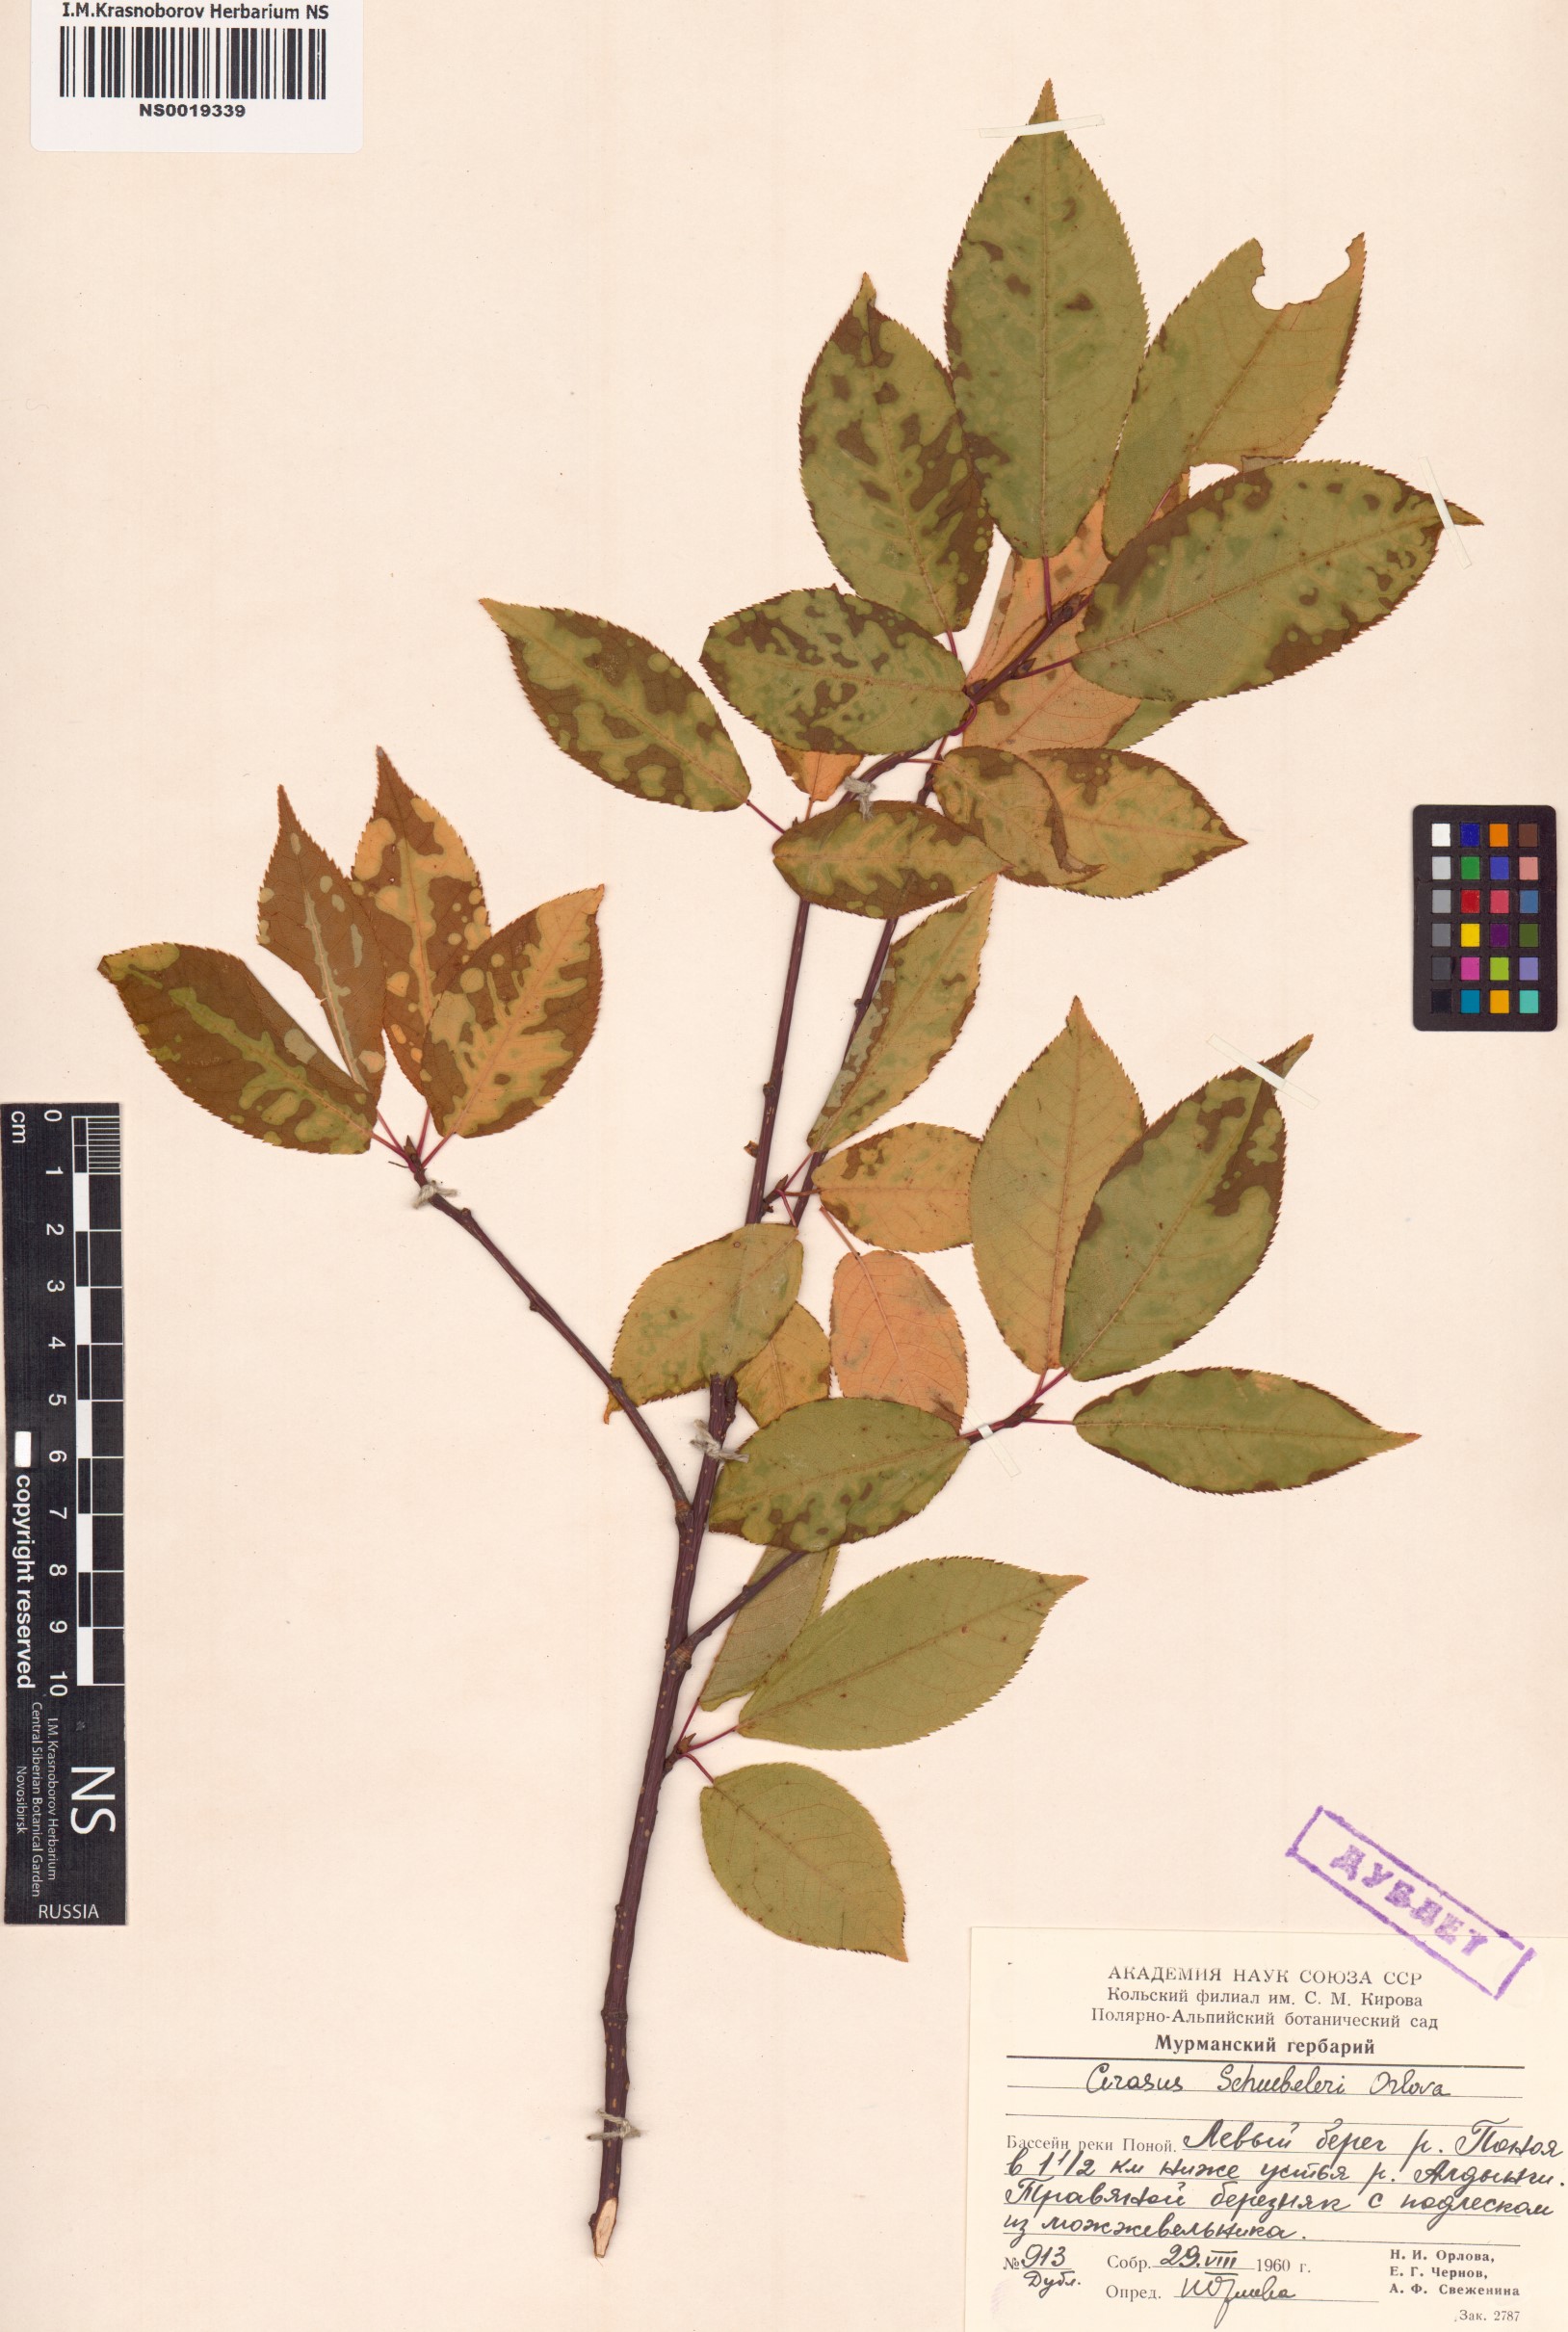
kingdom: Plantae
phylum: Tracheophyta
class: Magnoliopsida
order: Rosales
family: Rosaceae
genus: Prunus
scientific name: Prunus padus
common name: Bird cherry
